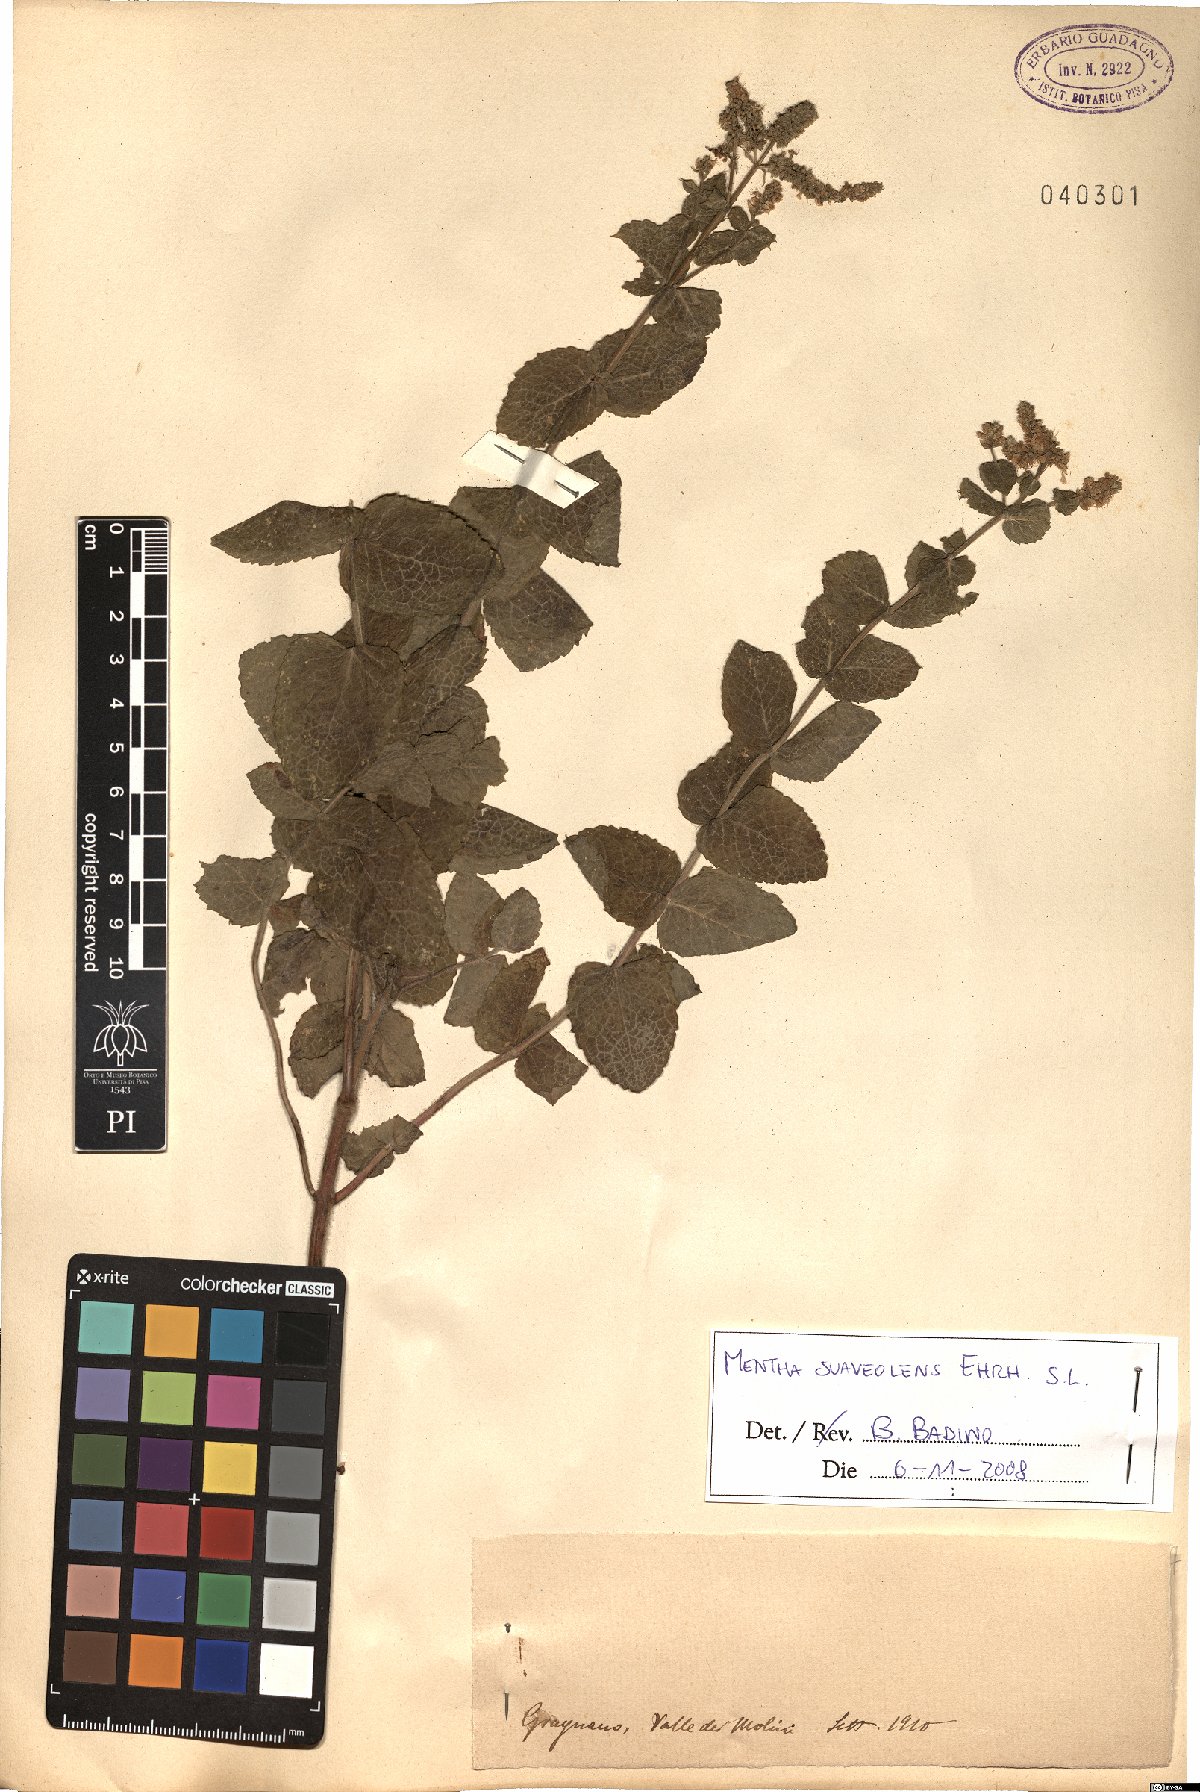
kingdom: Plantae
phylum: Tracheophyta
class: Magnoliopsida
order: Lamiales
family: Lamiaceae
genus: Mentha
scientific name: Mentha suaveolens
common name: Apple mint
